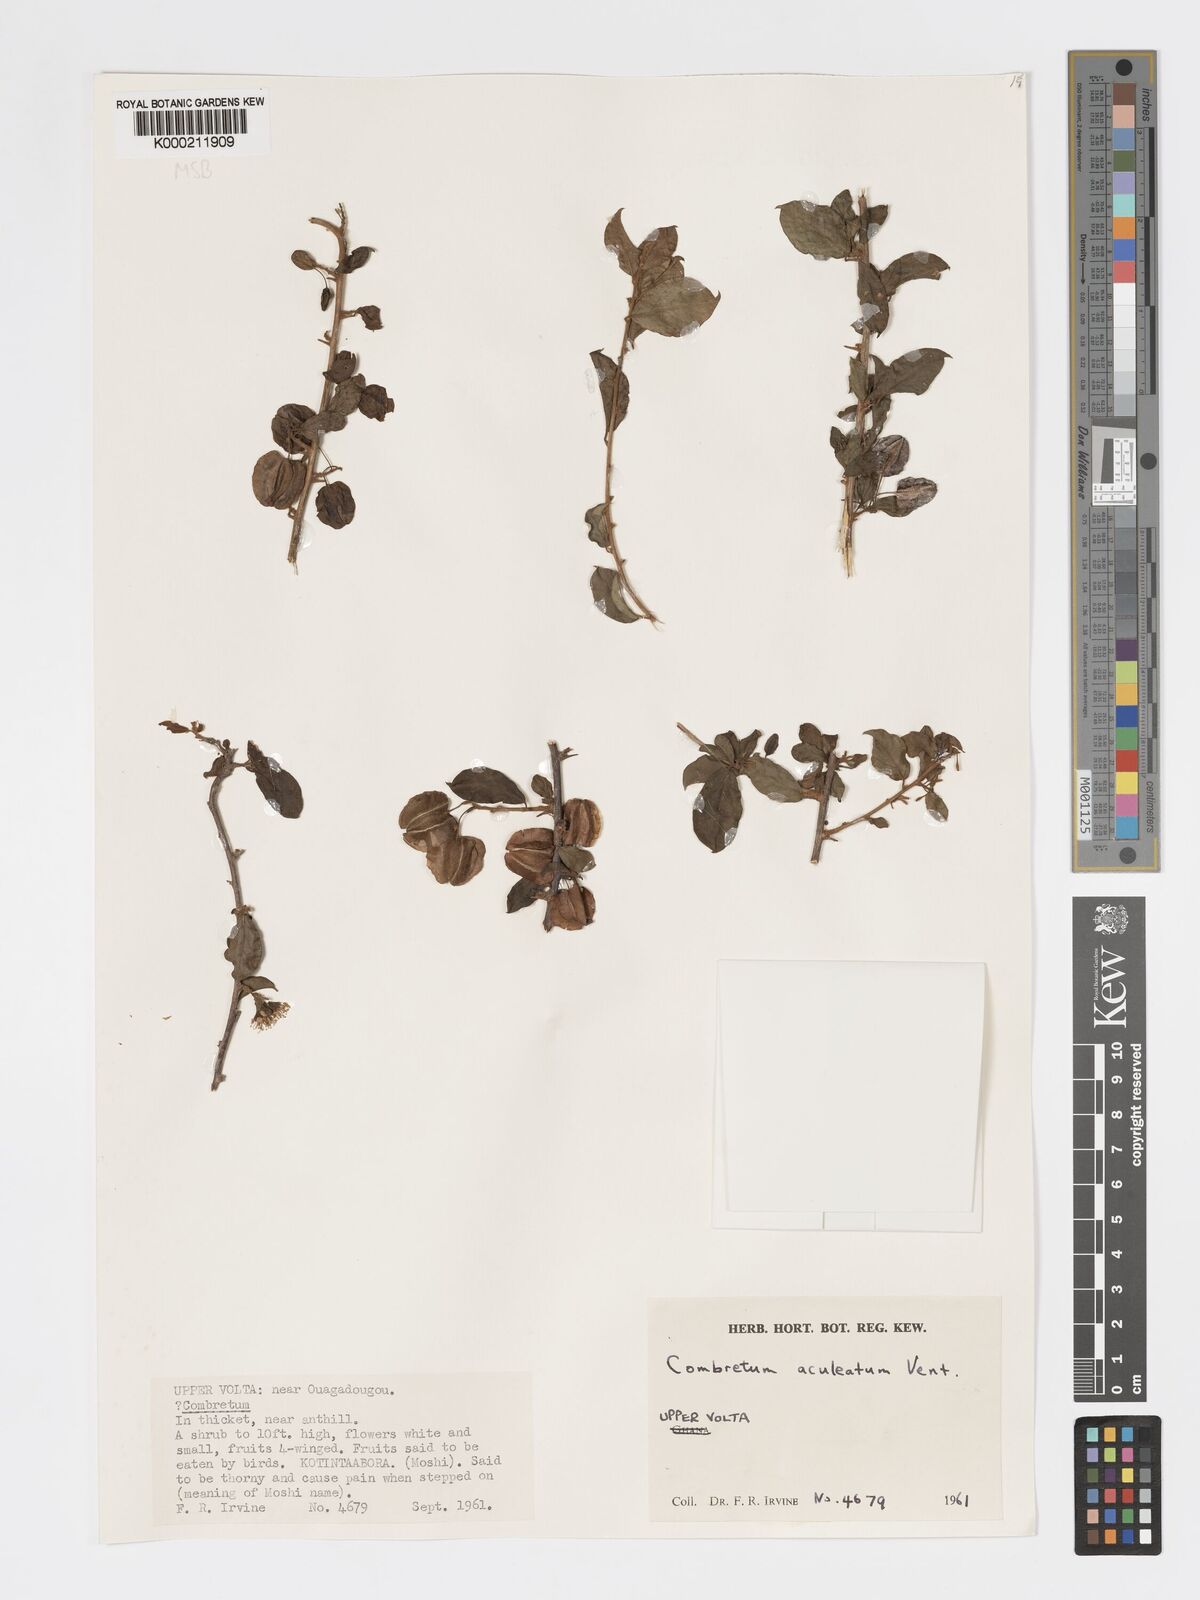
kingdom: Plantae
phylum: Tracheophyta
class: Magnoliopsida
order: Myrtales
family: Combretaceae
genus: Combretum
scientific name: Combretum aculeatum
